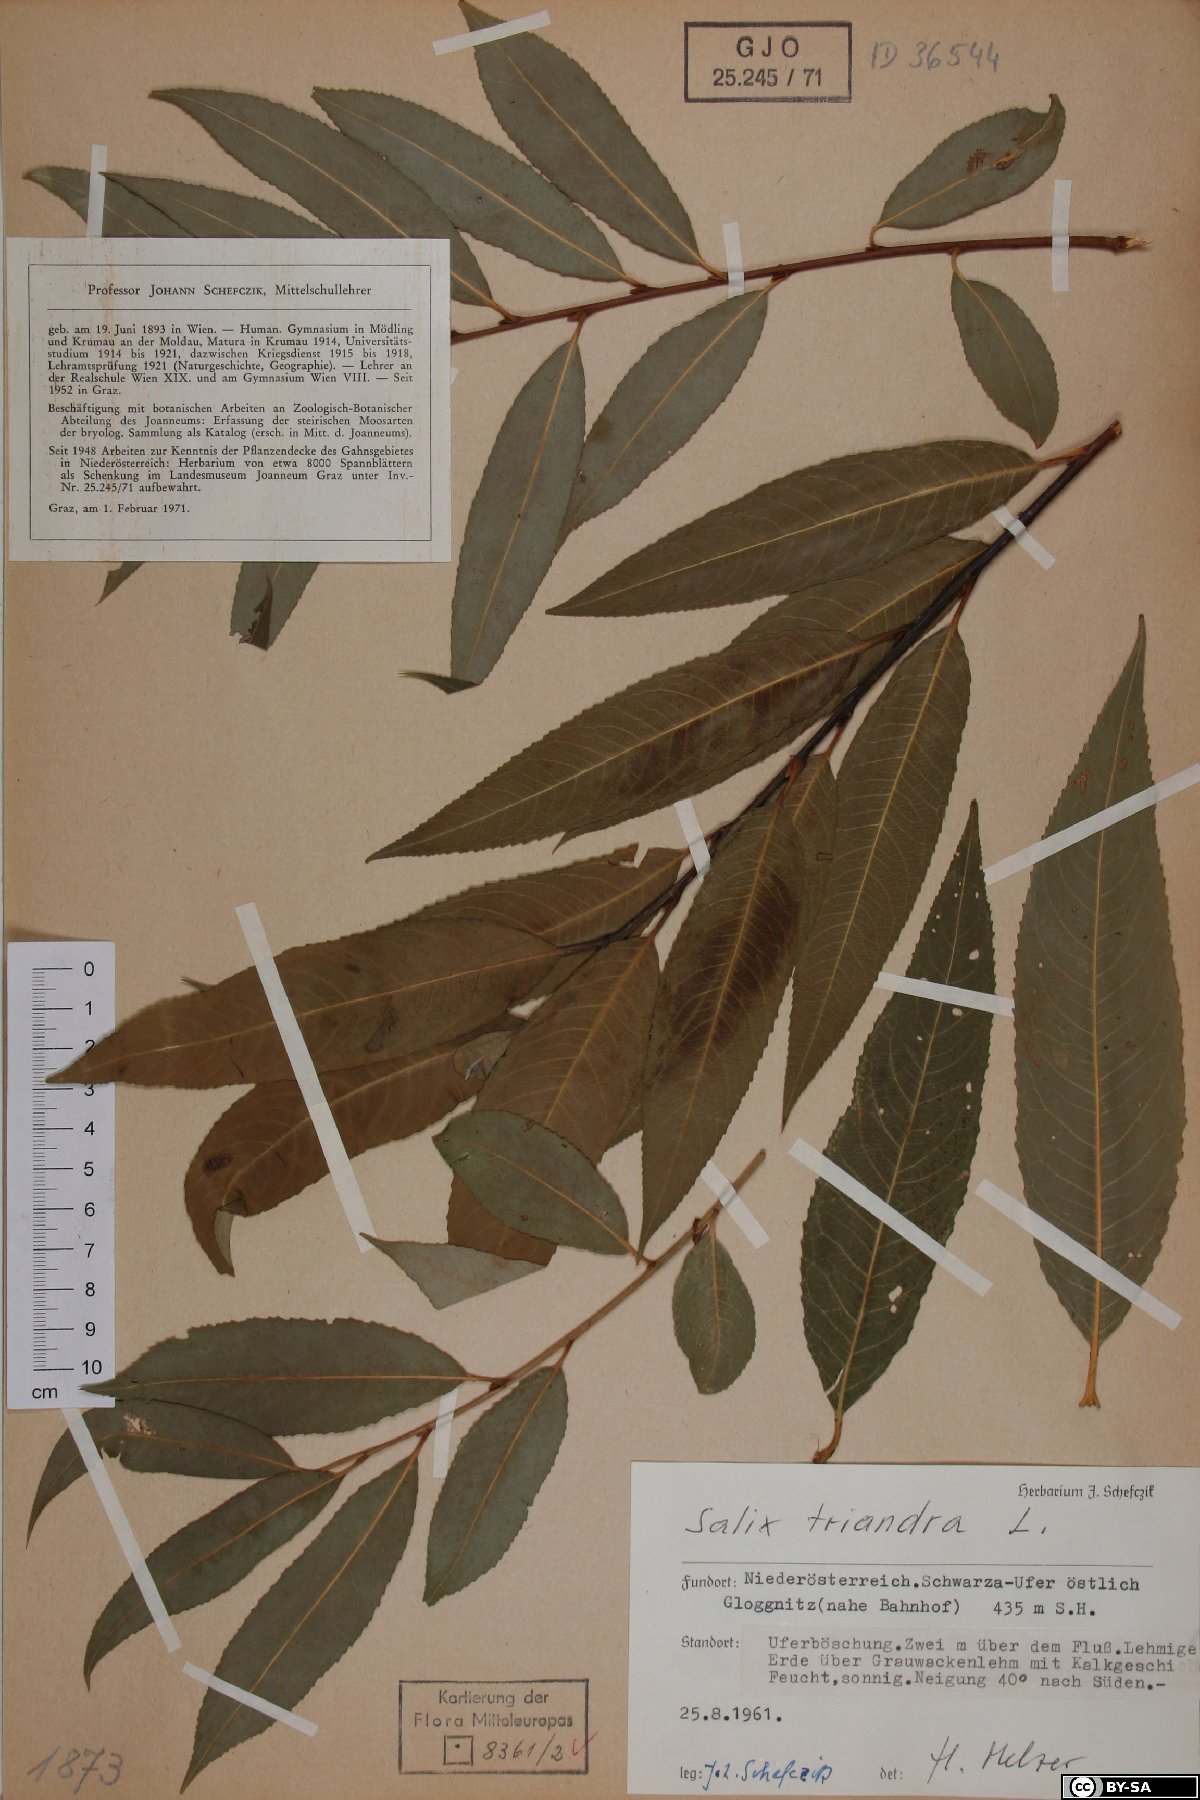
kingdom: Plantae
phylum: Tracheophyta
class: Magnoliopsida
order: Malpighiales
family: Salicaceae
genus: Salix
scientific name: Salix triandra
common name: Almond willow
